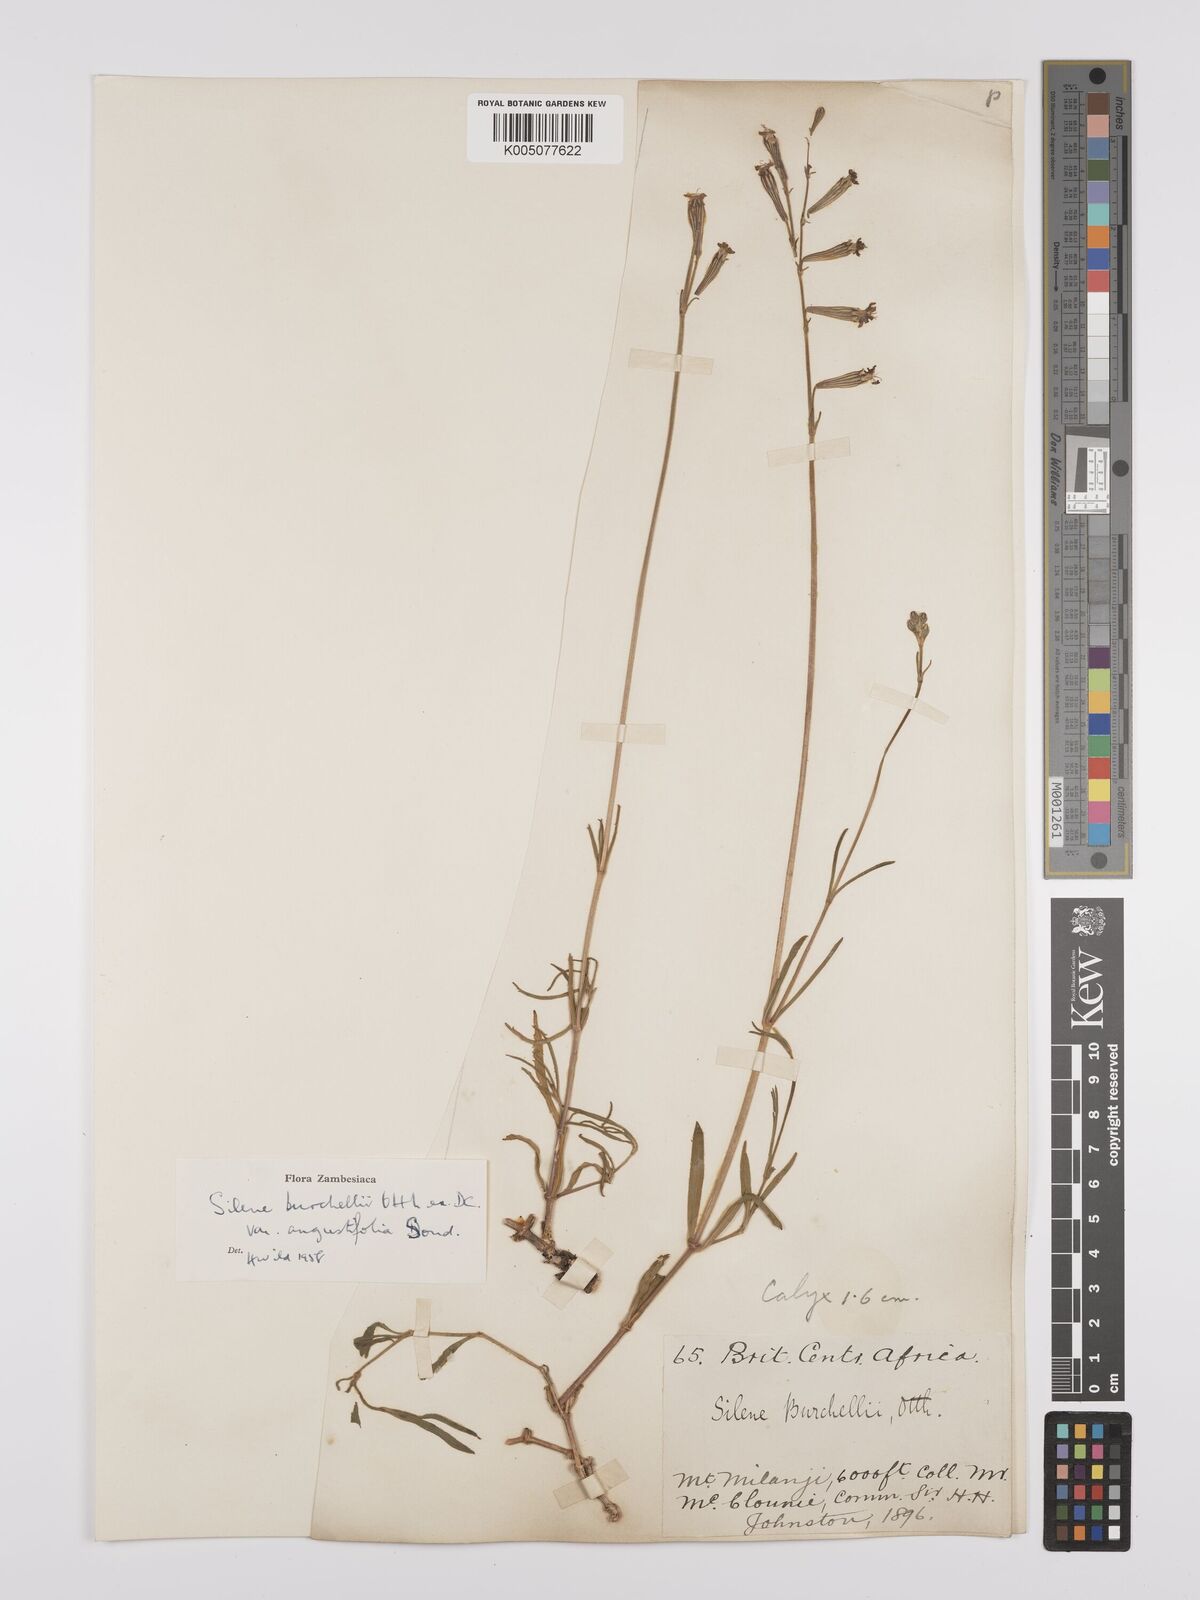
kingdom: Plantae
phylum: Tracheophyta
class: Magnoliopsida
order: Caryophyllales
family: Caryophyllaceae
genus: Silene
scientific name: Silene burchellii
